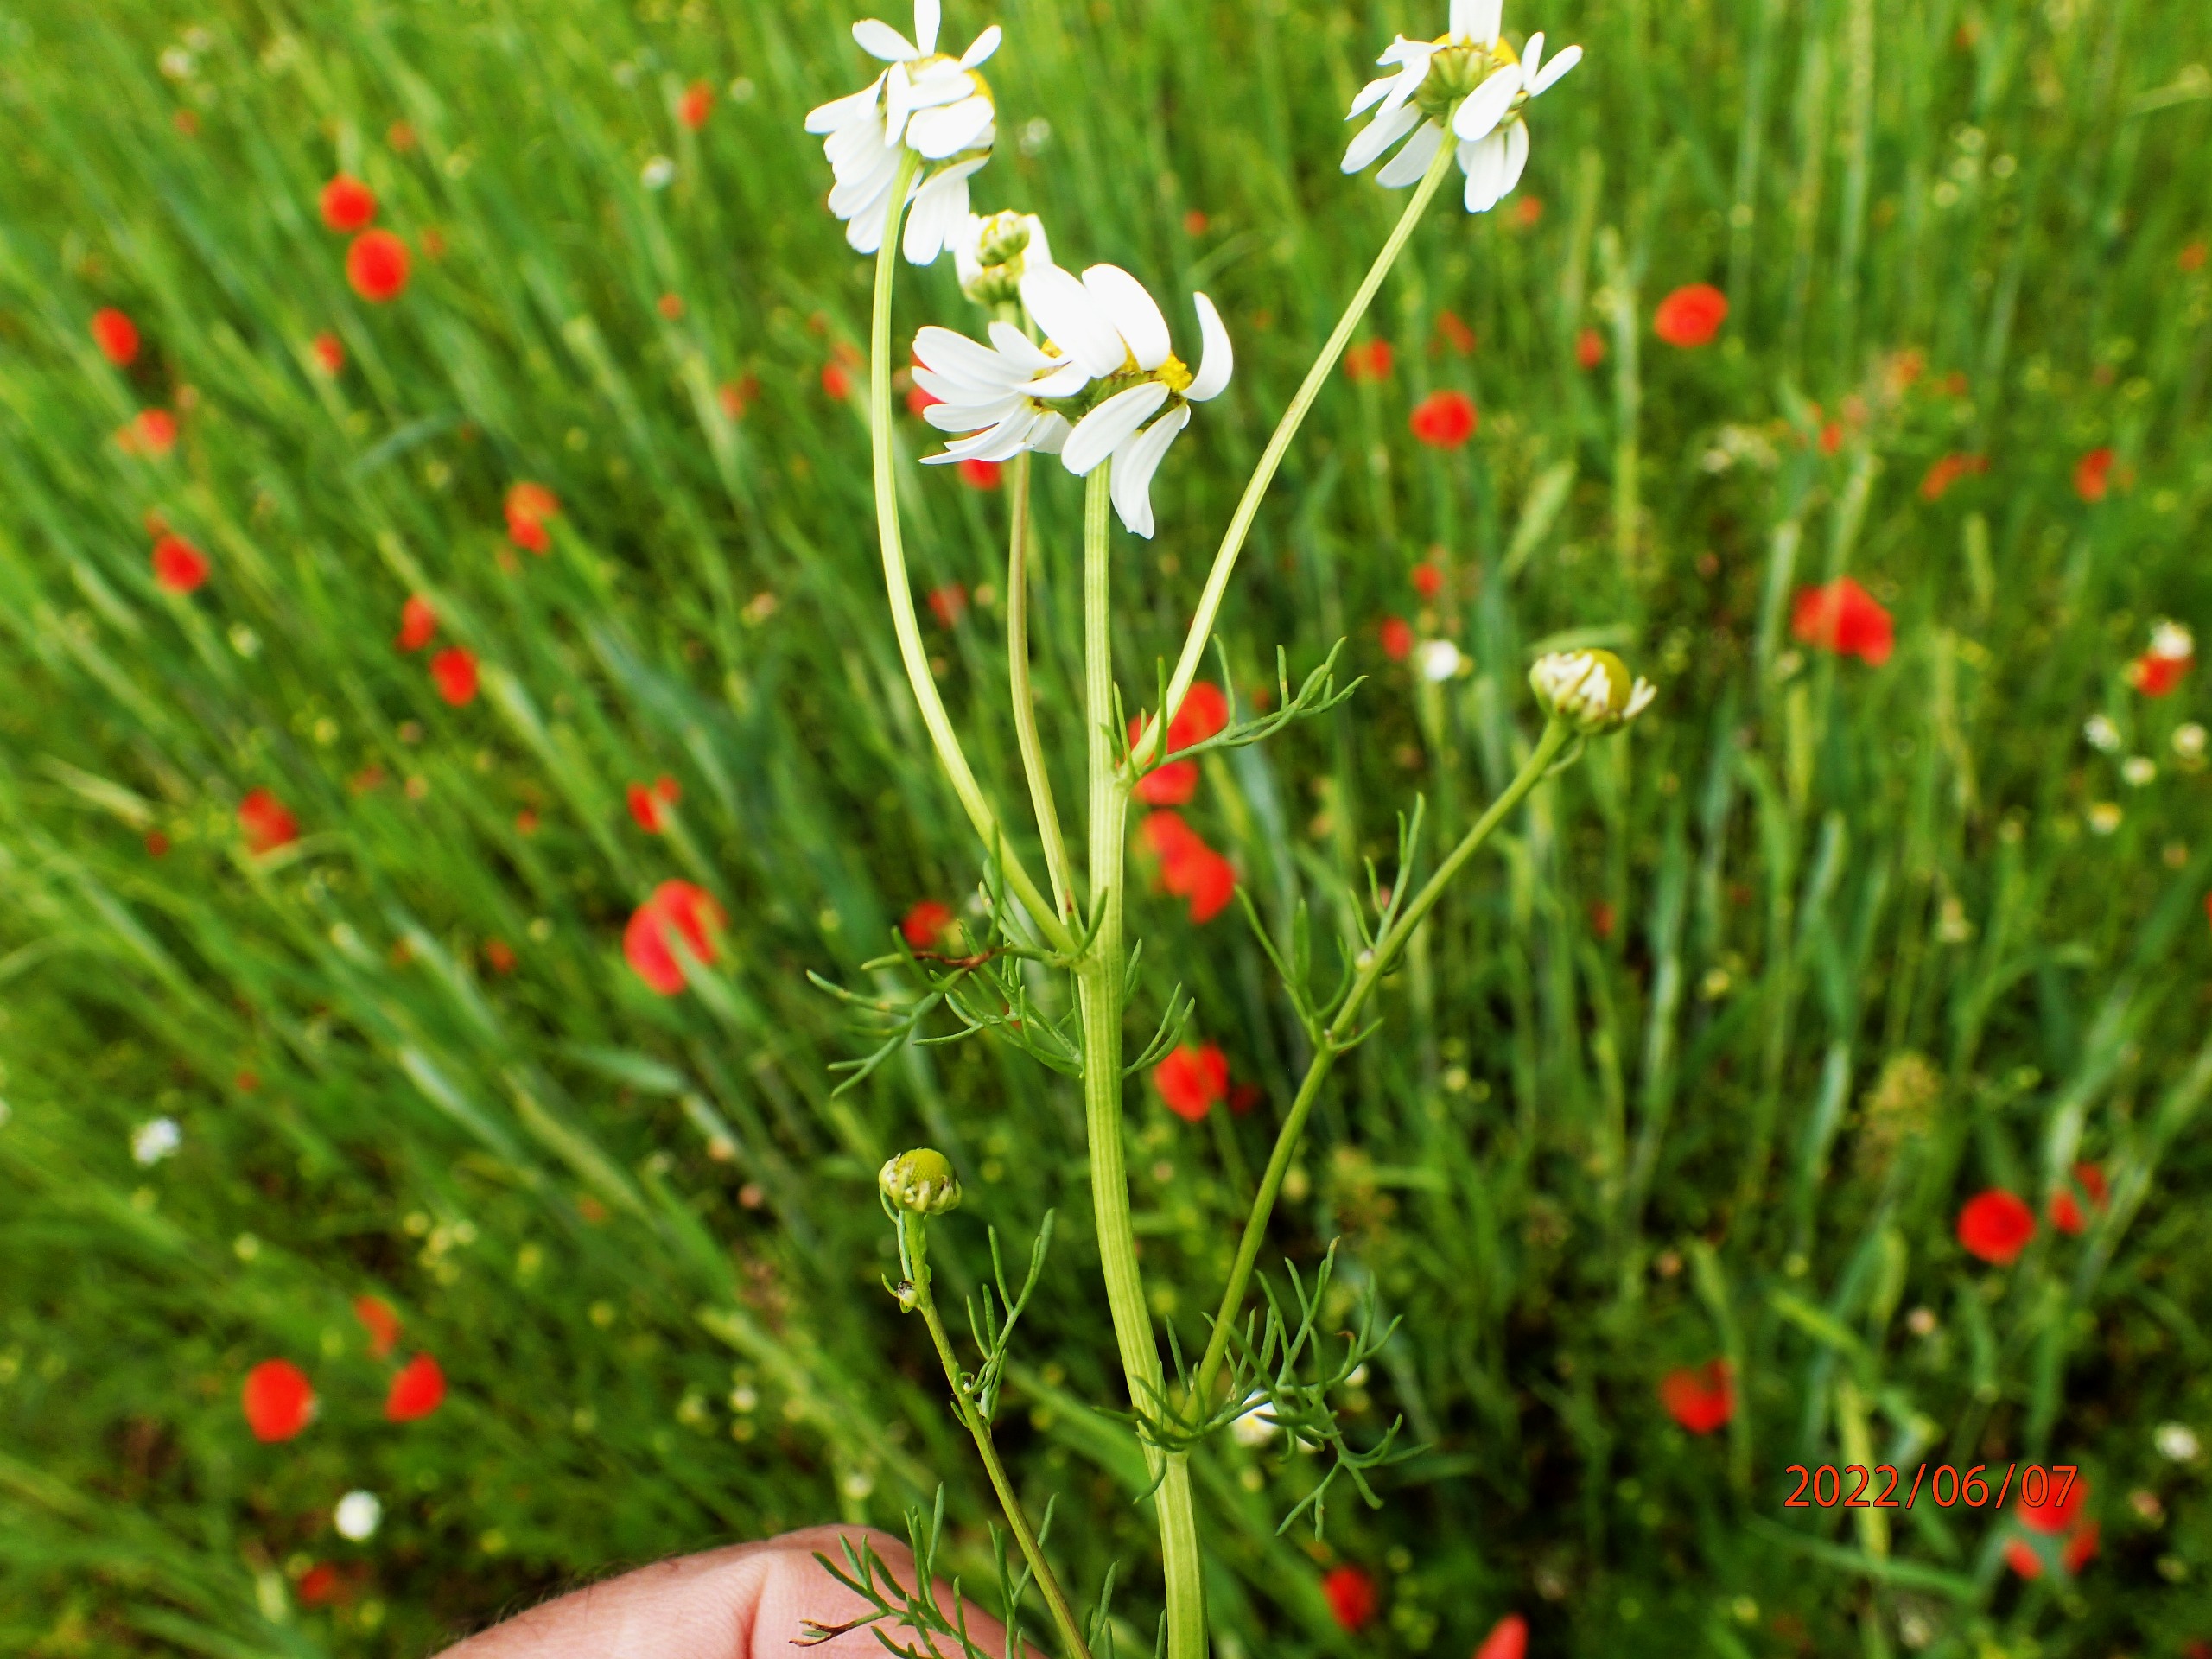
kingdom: Plantae
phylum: Tracheophyta
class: Magnoliopsida
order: Asterales
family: Asteraceae
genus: Tripleurospermum
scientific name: Tripleurospermum inodorum
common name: Lugtløs kamille
